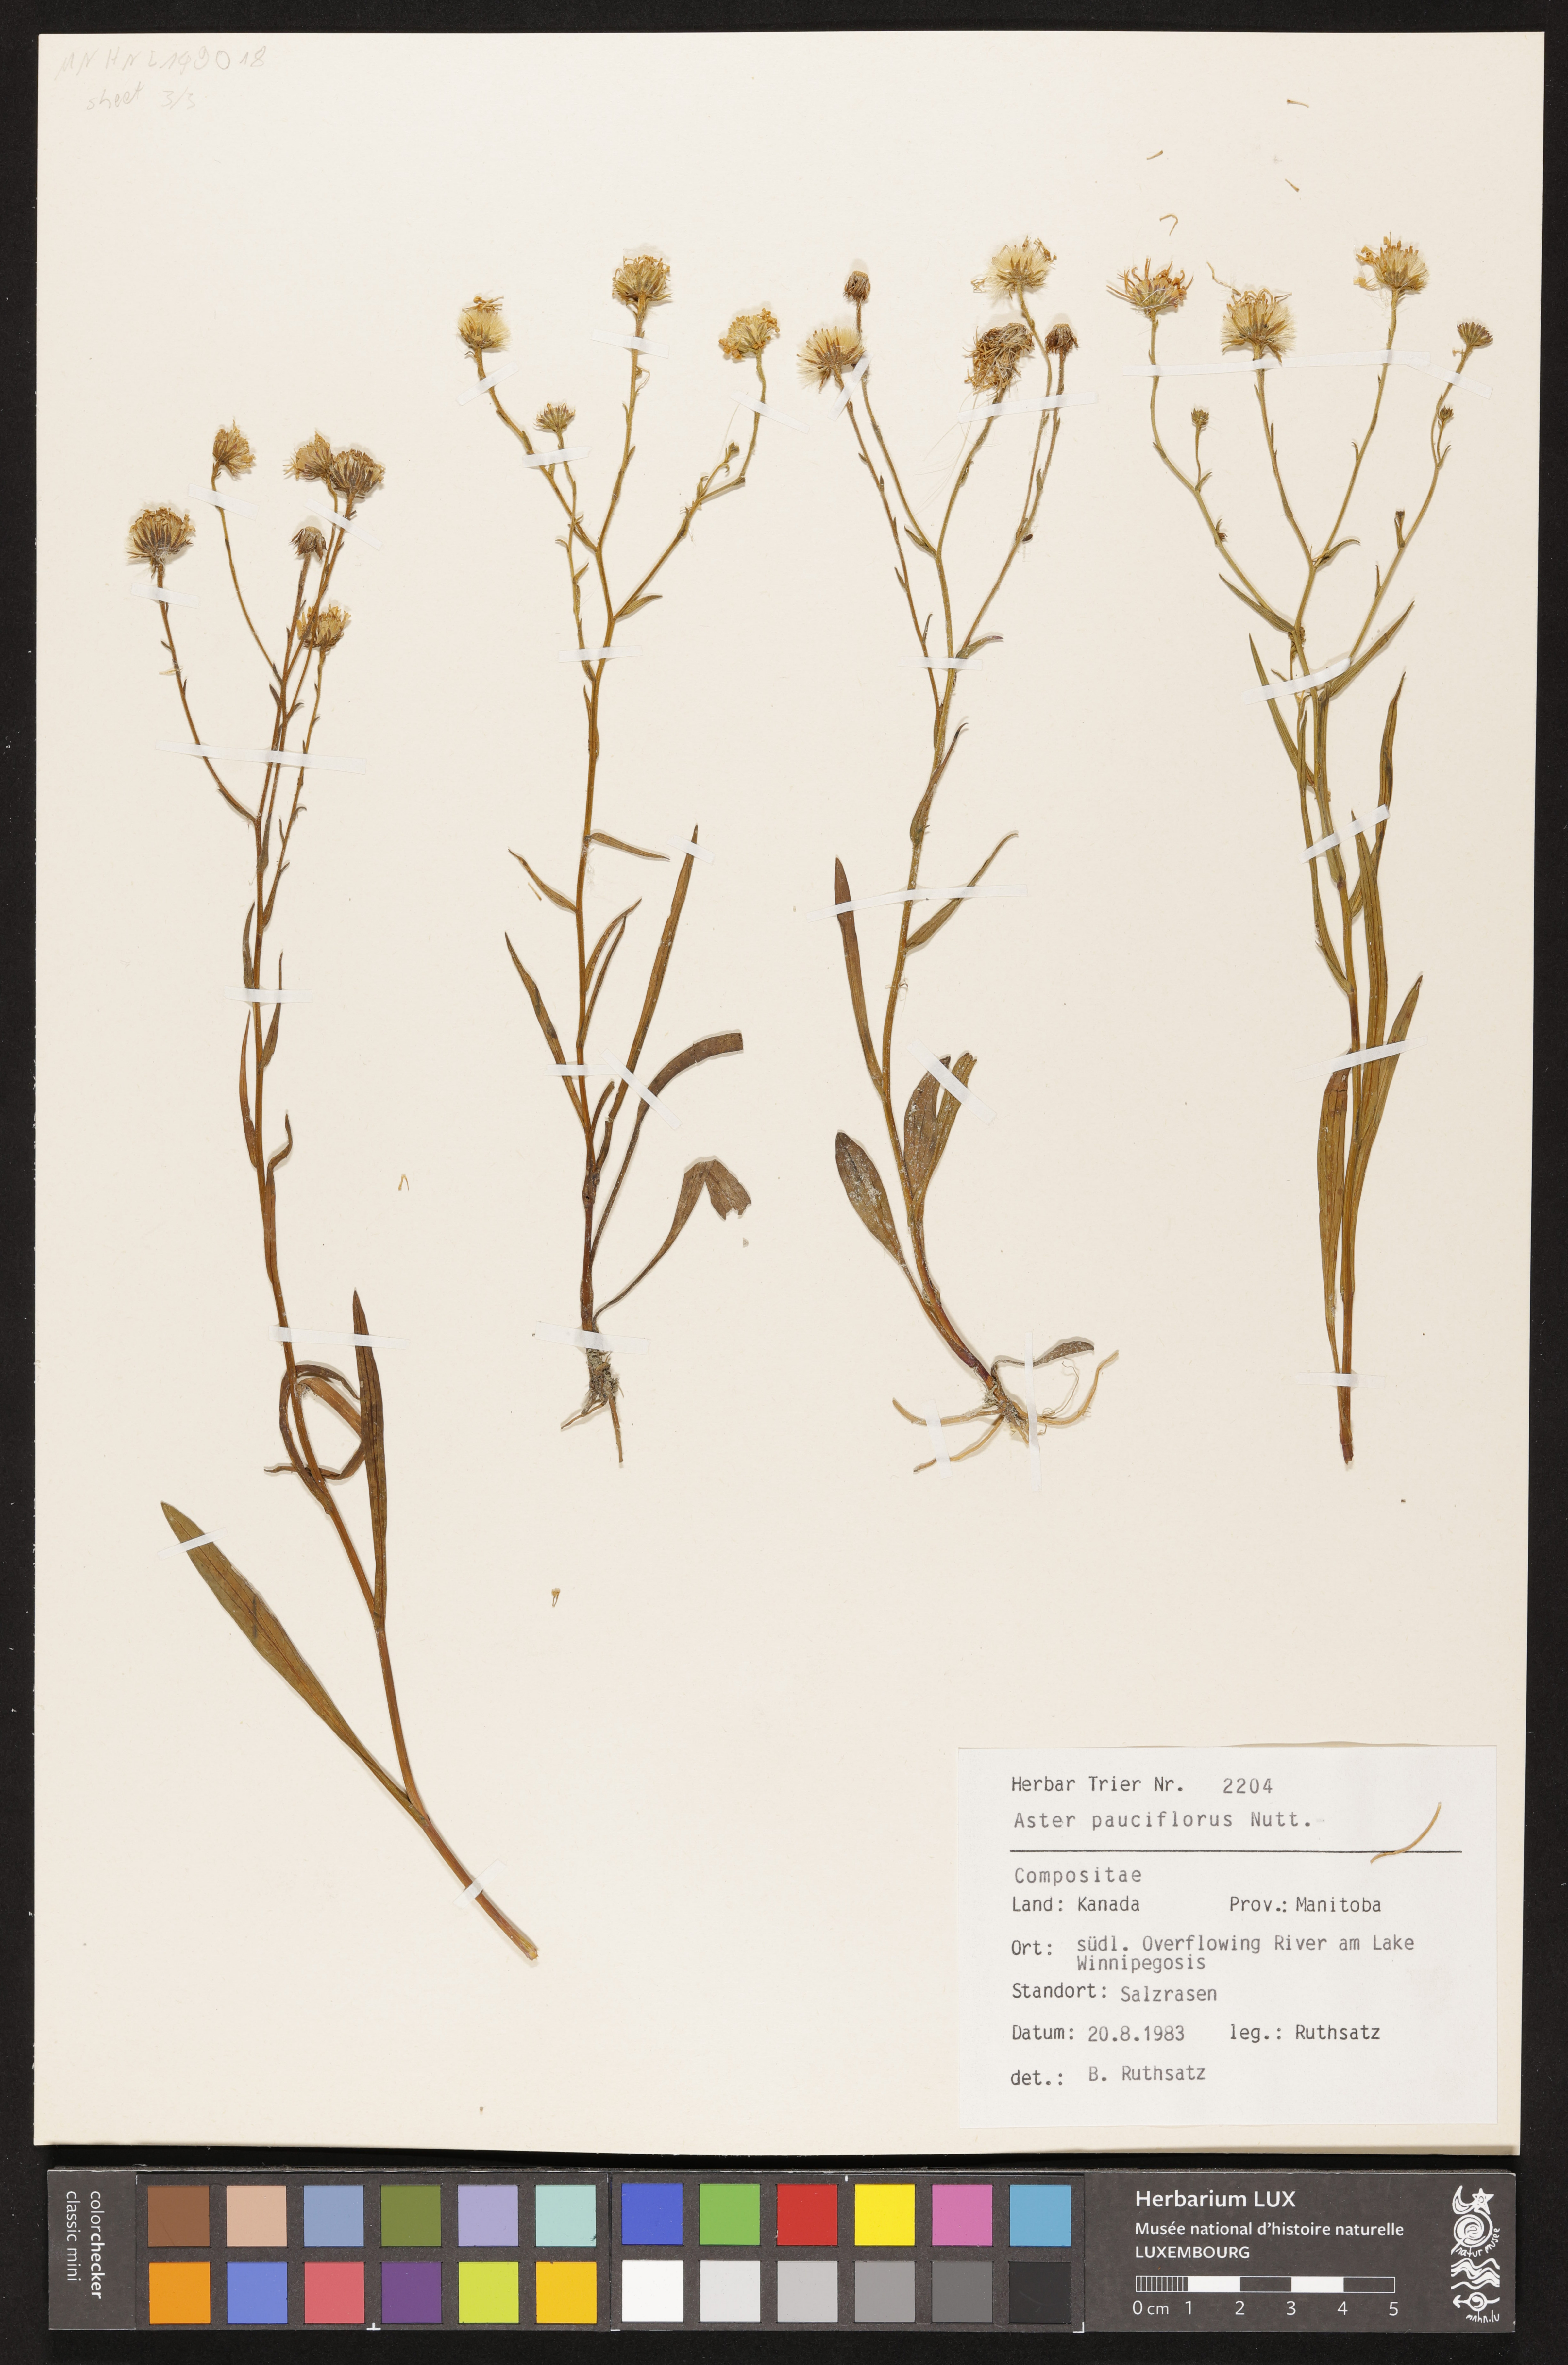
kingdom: Plantae
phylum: Tracheophyta
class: Magnoliopsida
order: Asterales
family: Asteraceae
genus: Almutaster
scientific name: Almutaster pauciflorus
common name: Alkaline aster
